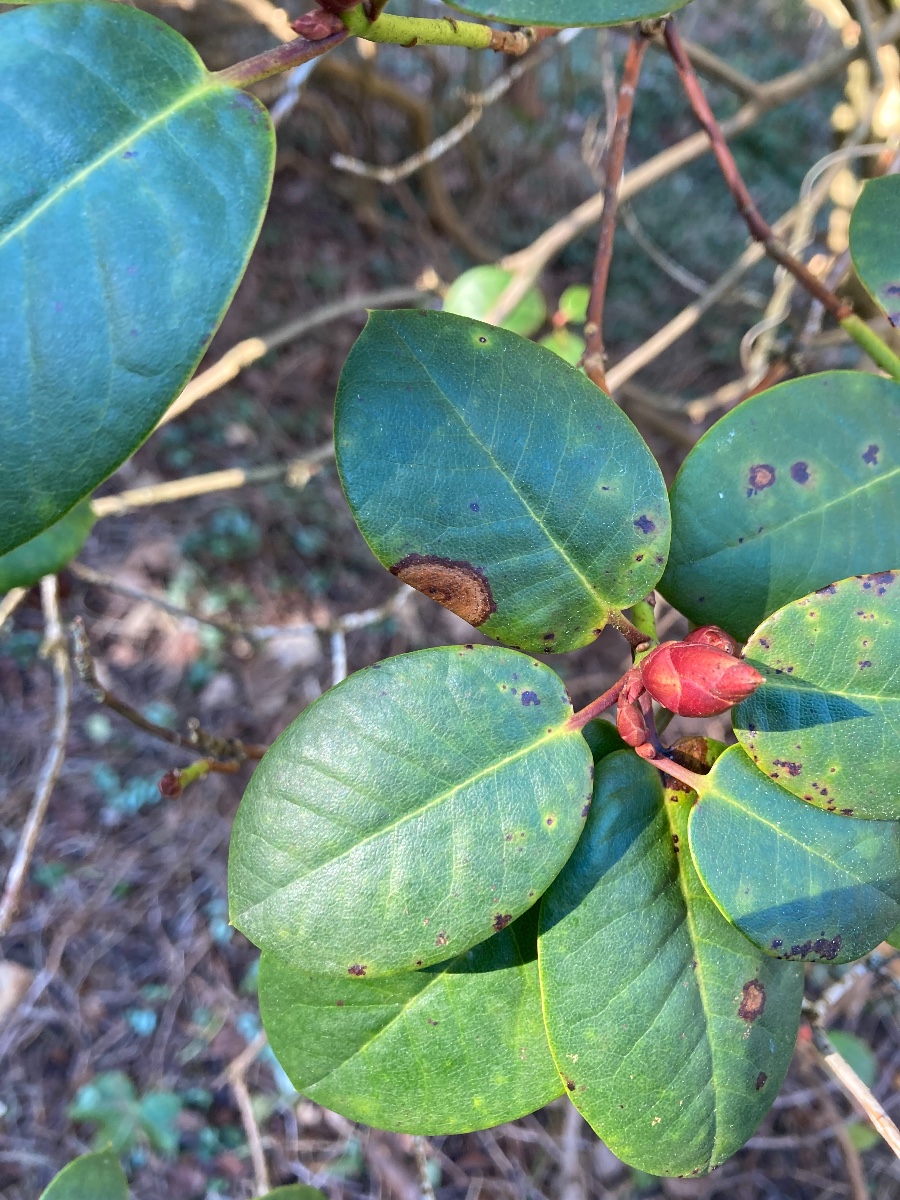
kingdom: Fungi
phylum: Ascomycota
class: Sordariomycetes
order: Glomerellales
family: Glomerellaceae
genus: Colletotrichum
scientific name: Colletotrichum gloeosporioides
